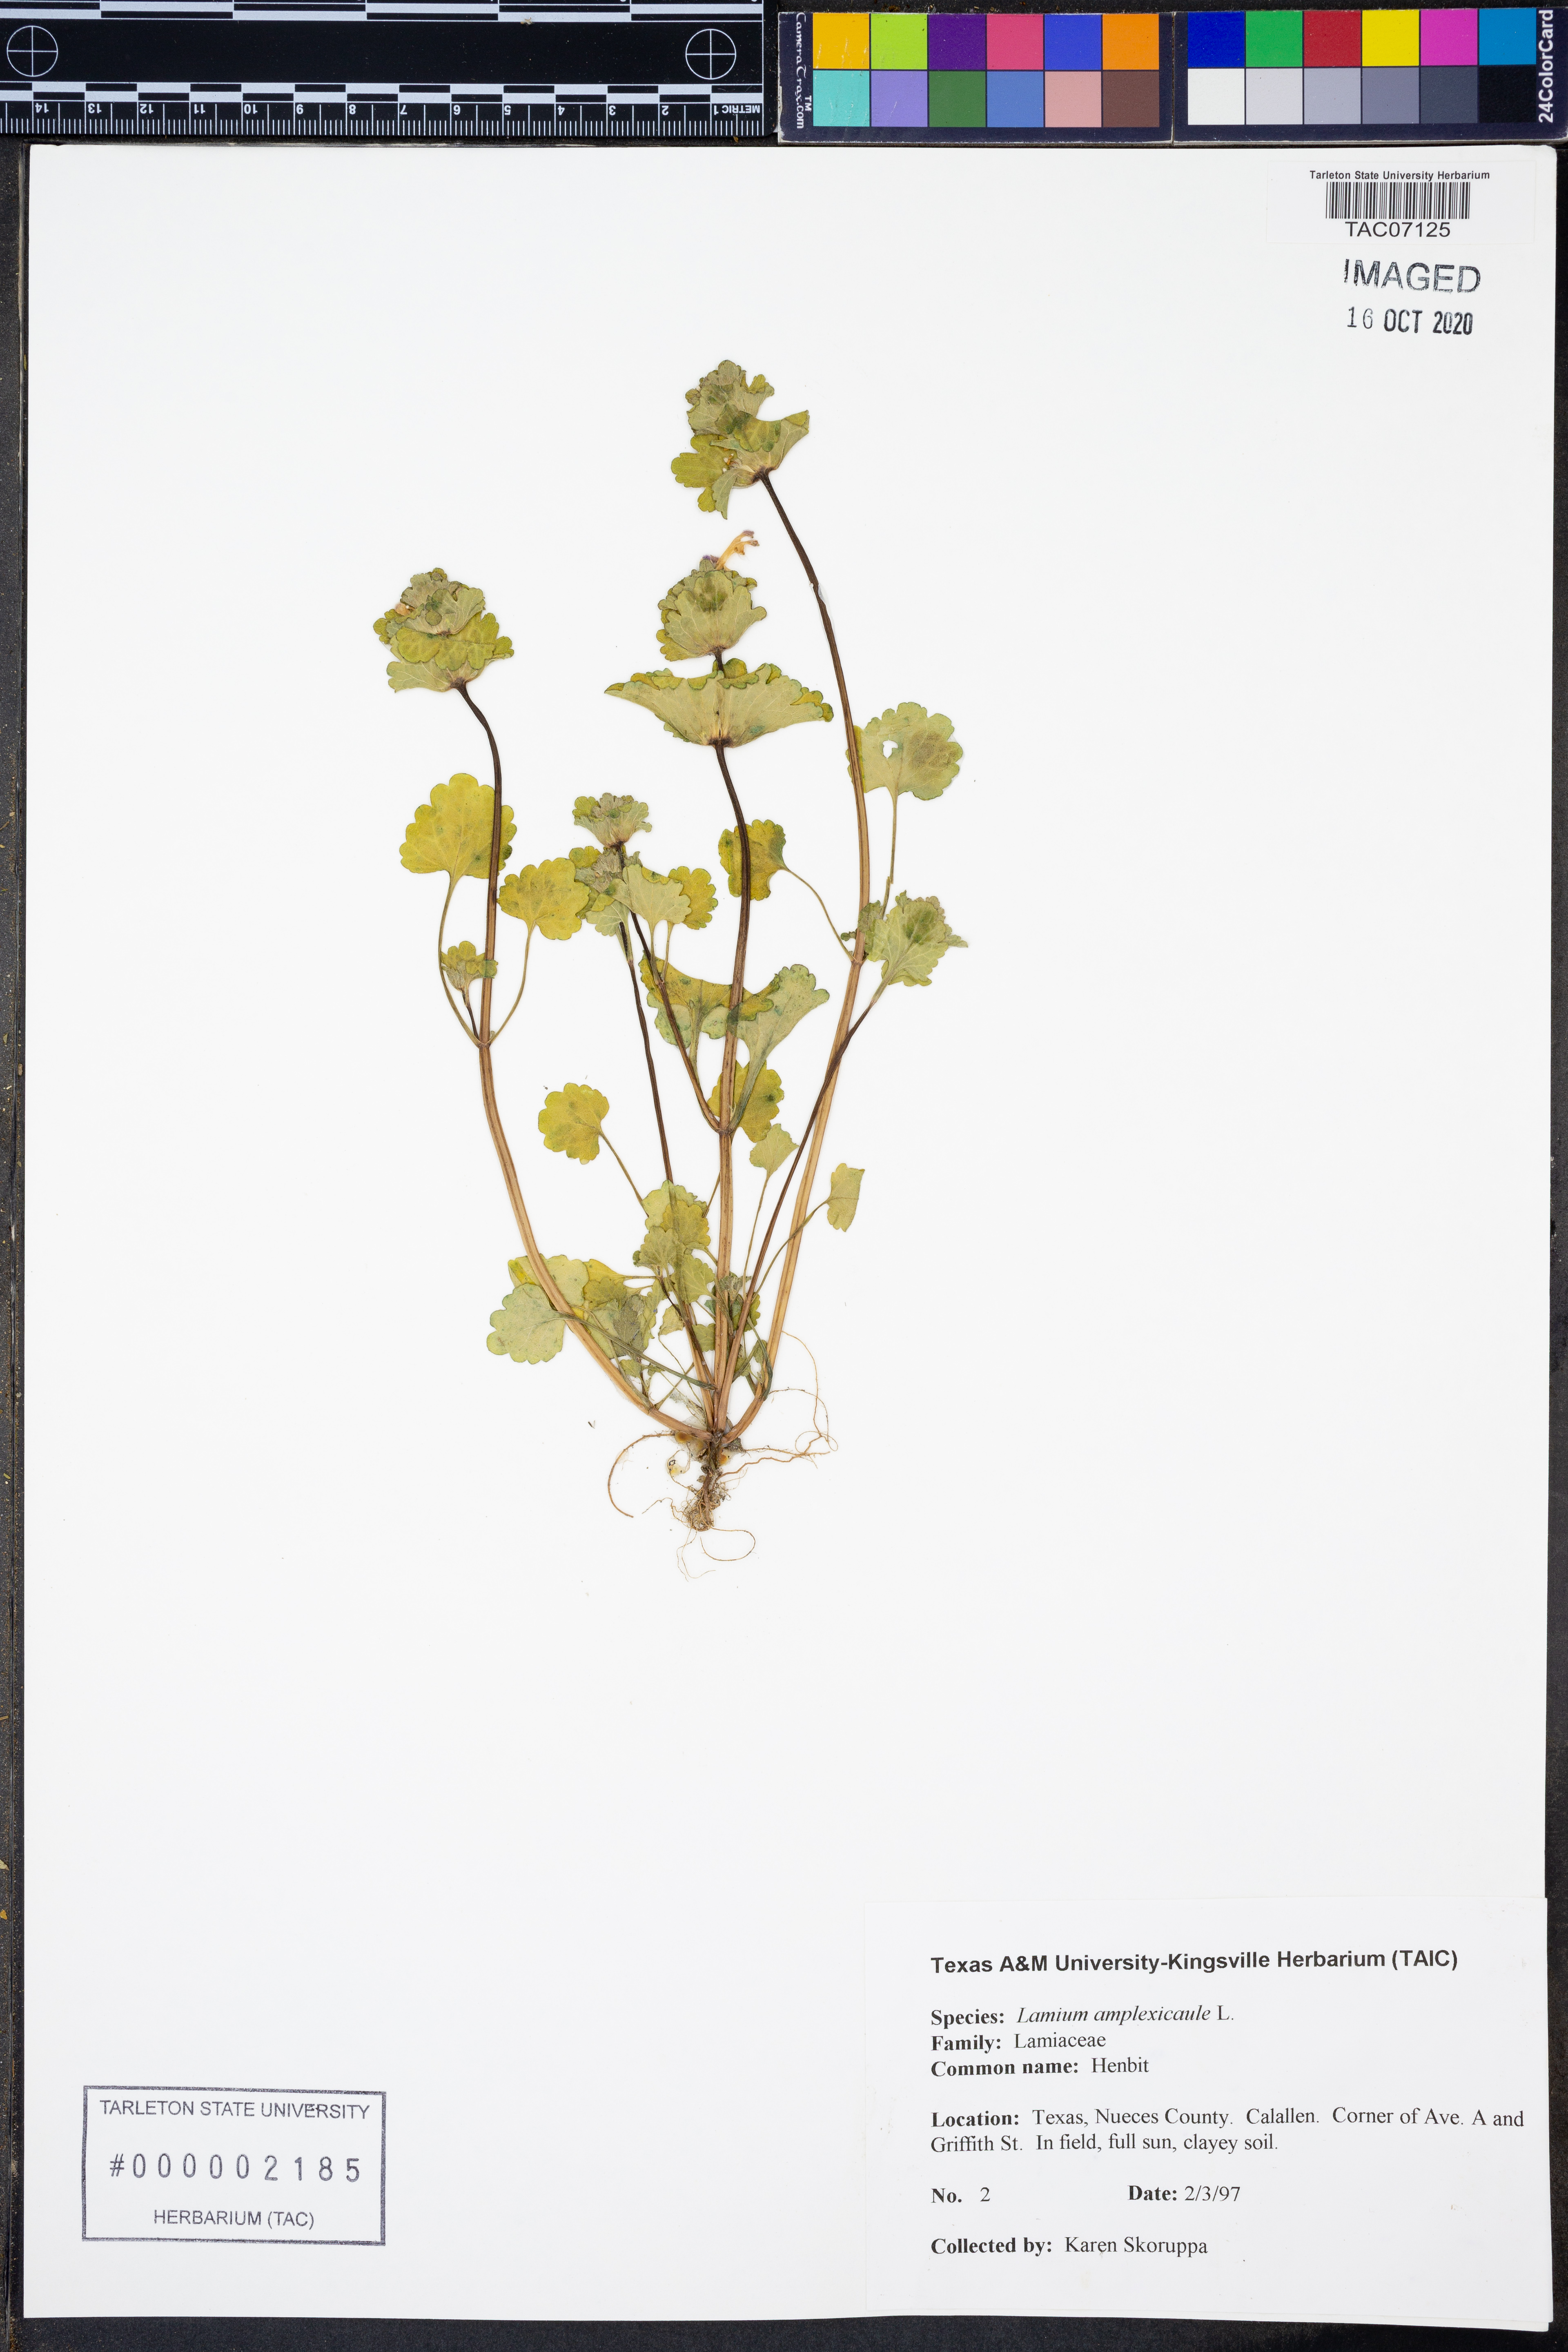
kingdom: Plantae
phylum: Tracheophyta
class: Magnoliopsida
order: Lamiales
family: Lamiaceae
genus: Lamium
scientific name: Lamium amplexicaule
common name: Henbit dead-nettle
